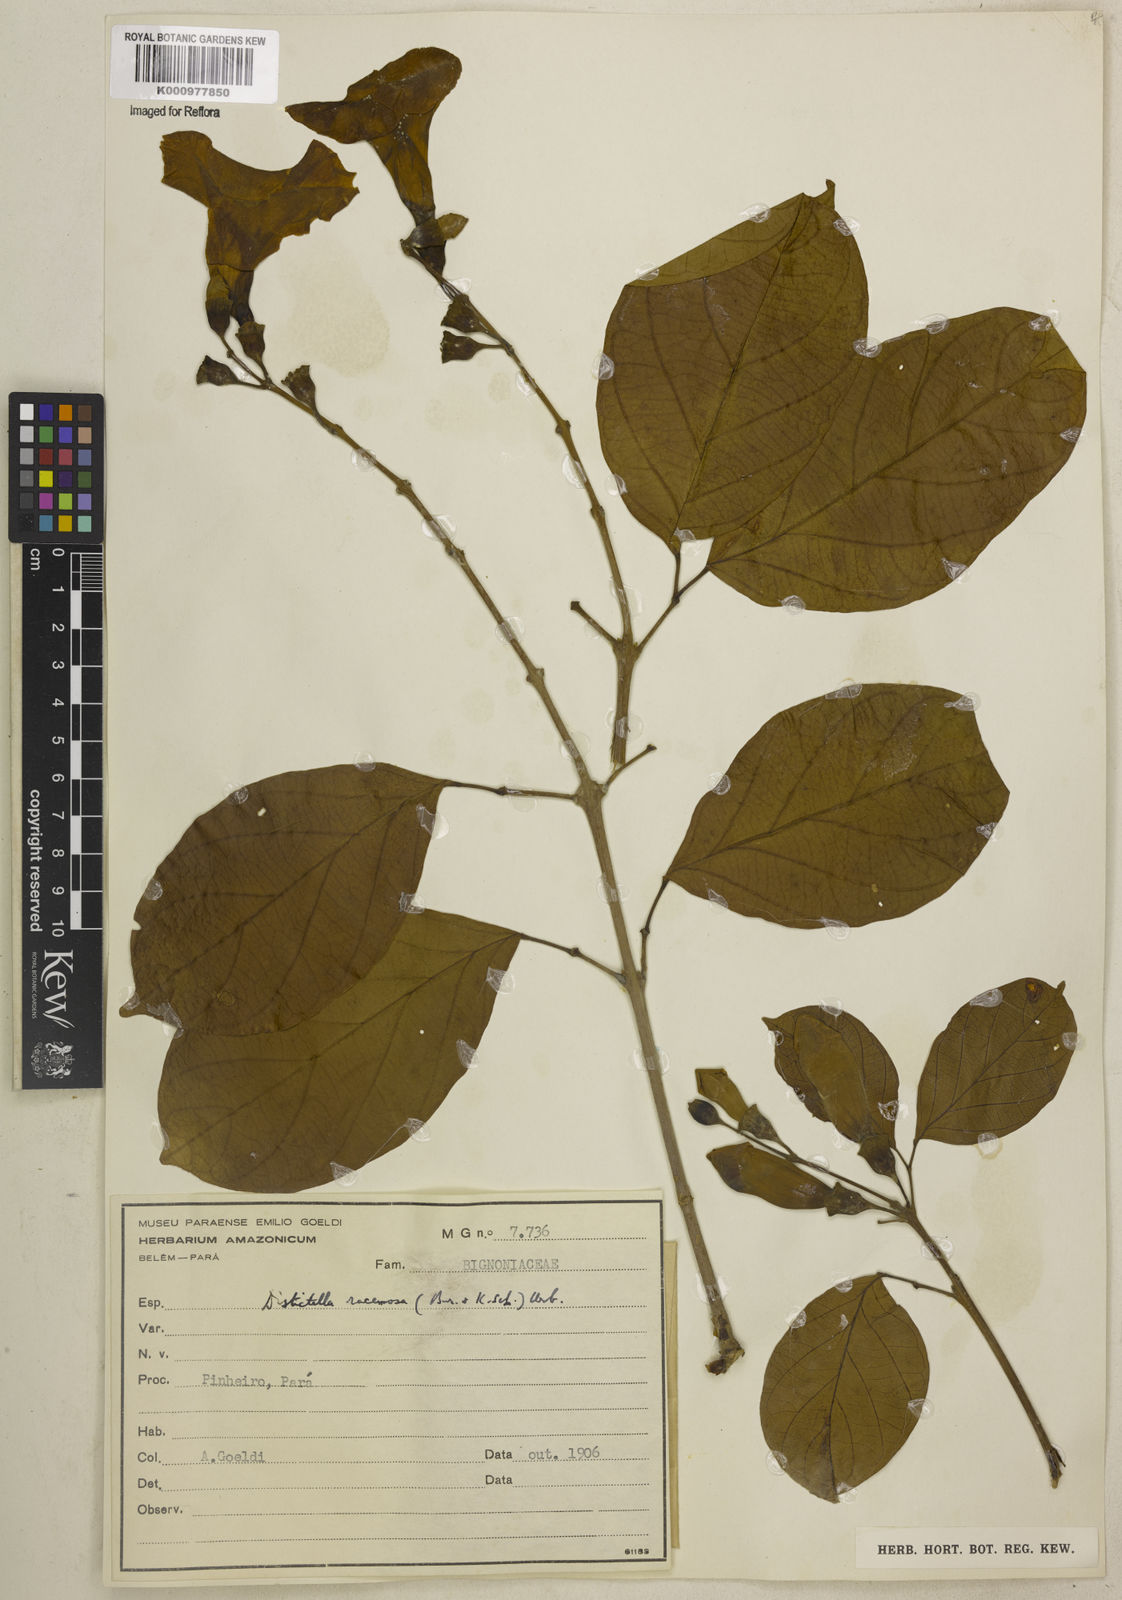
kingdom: Plantae
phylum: Tracheophyta
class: Magnoliopsida
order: Lamiales
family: Bignoniaceae
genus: Amphilophium
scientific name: Amphilophium racemosum
